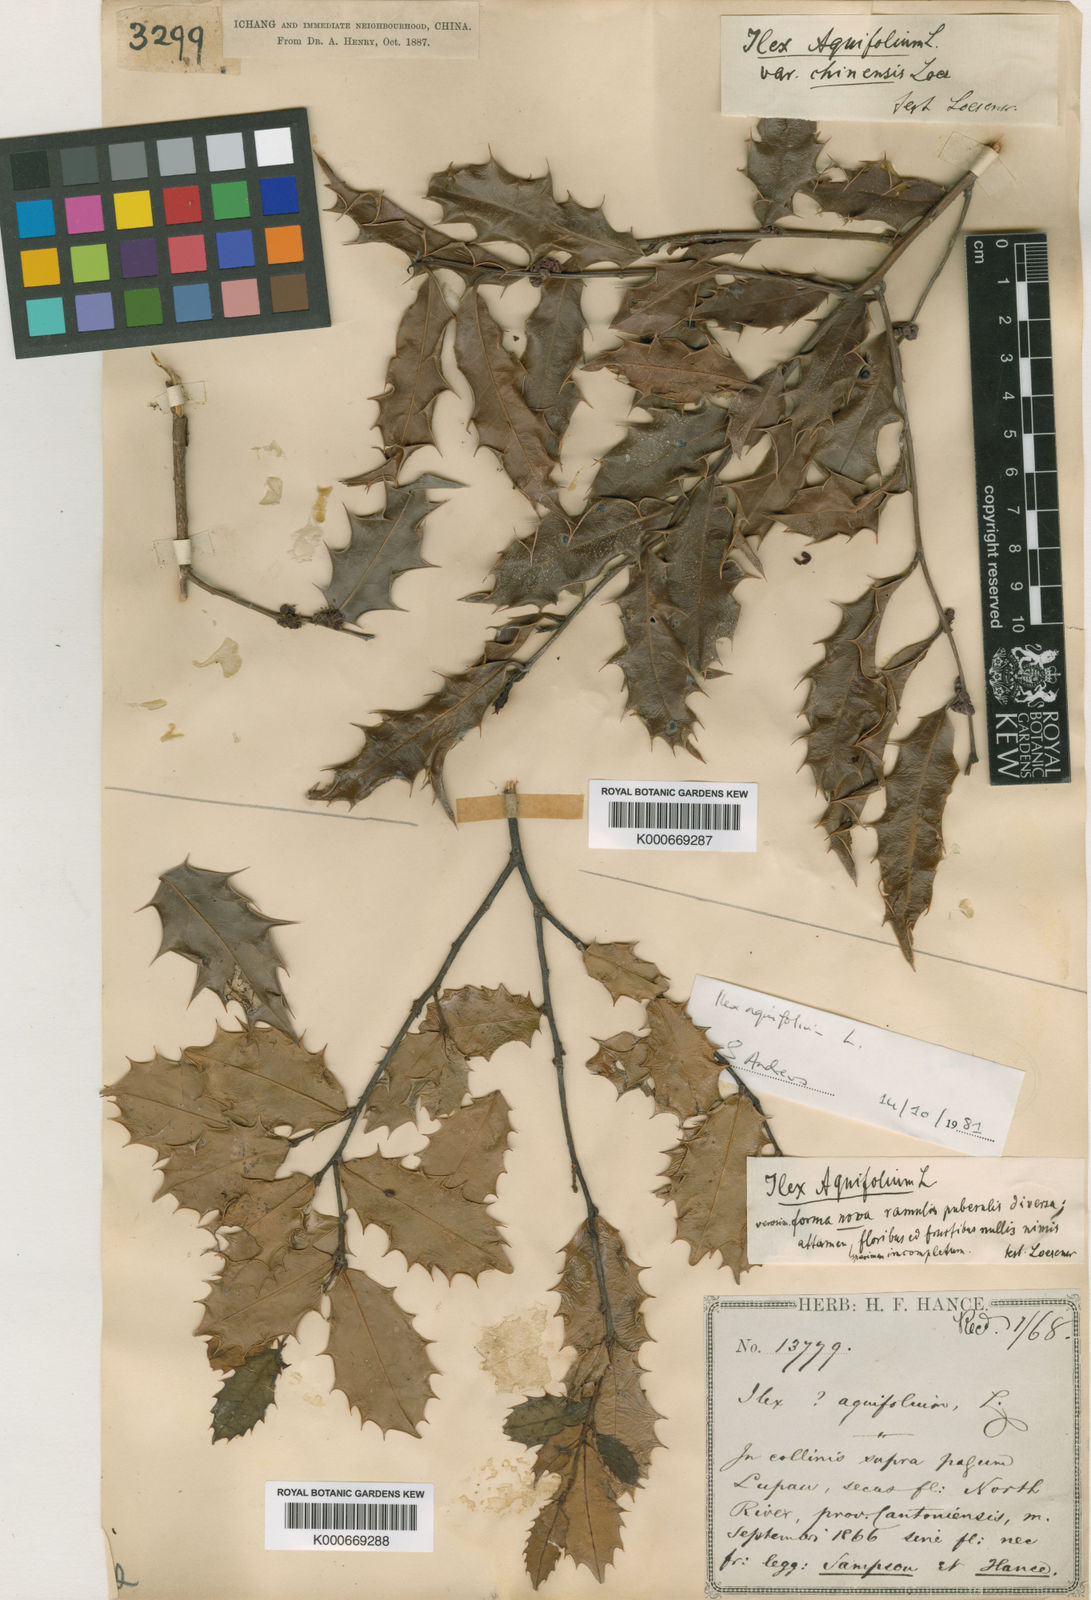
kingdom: Plantae
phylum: Tracheophyta
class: Magnoliopsida
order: Aquifoliales
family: Aquifoliaceae
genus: Ilex
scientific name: Ilex centrochinensis
